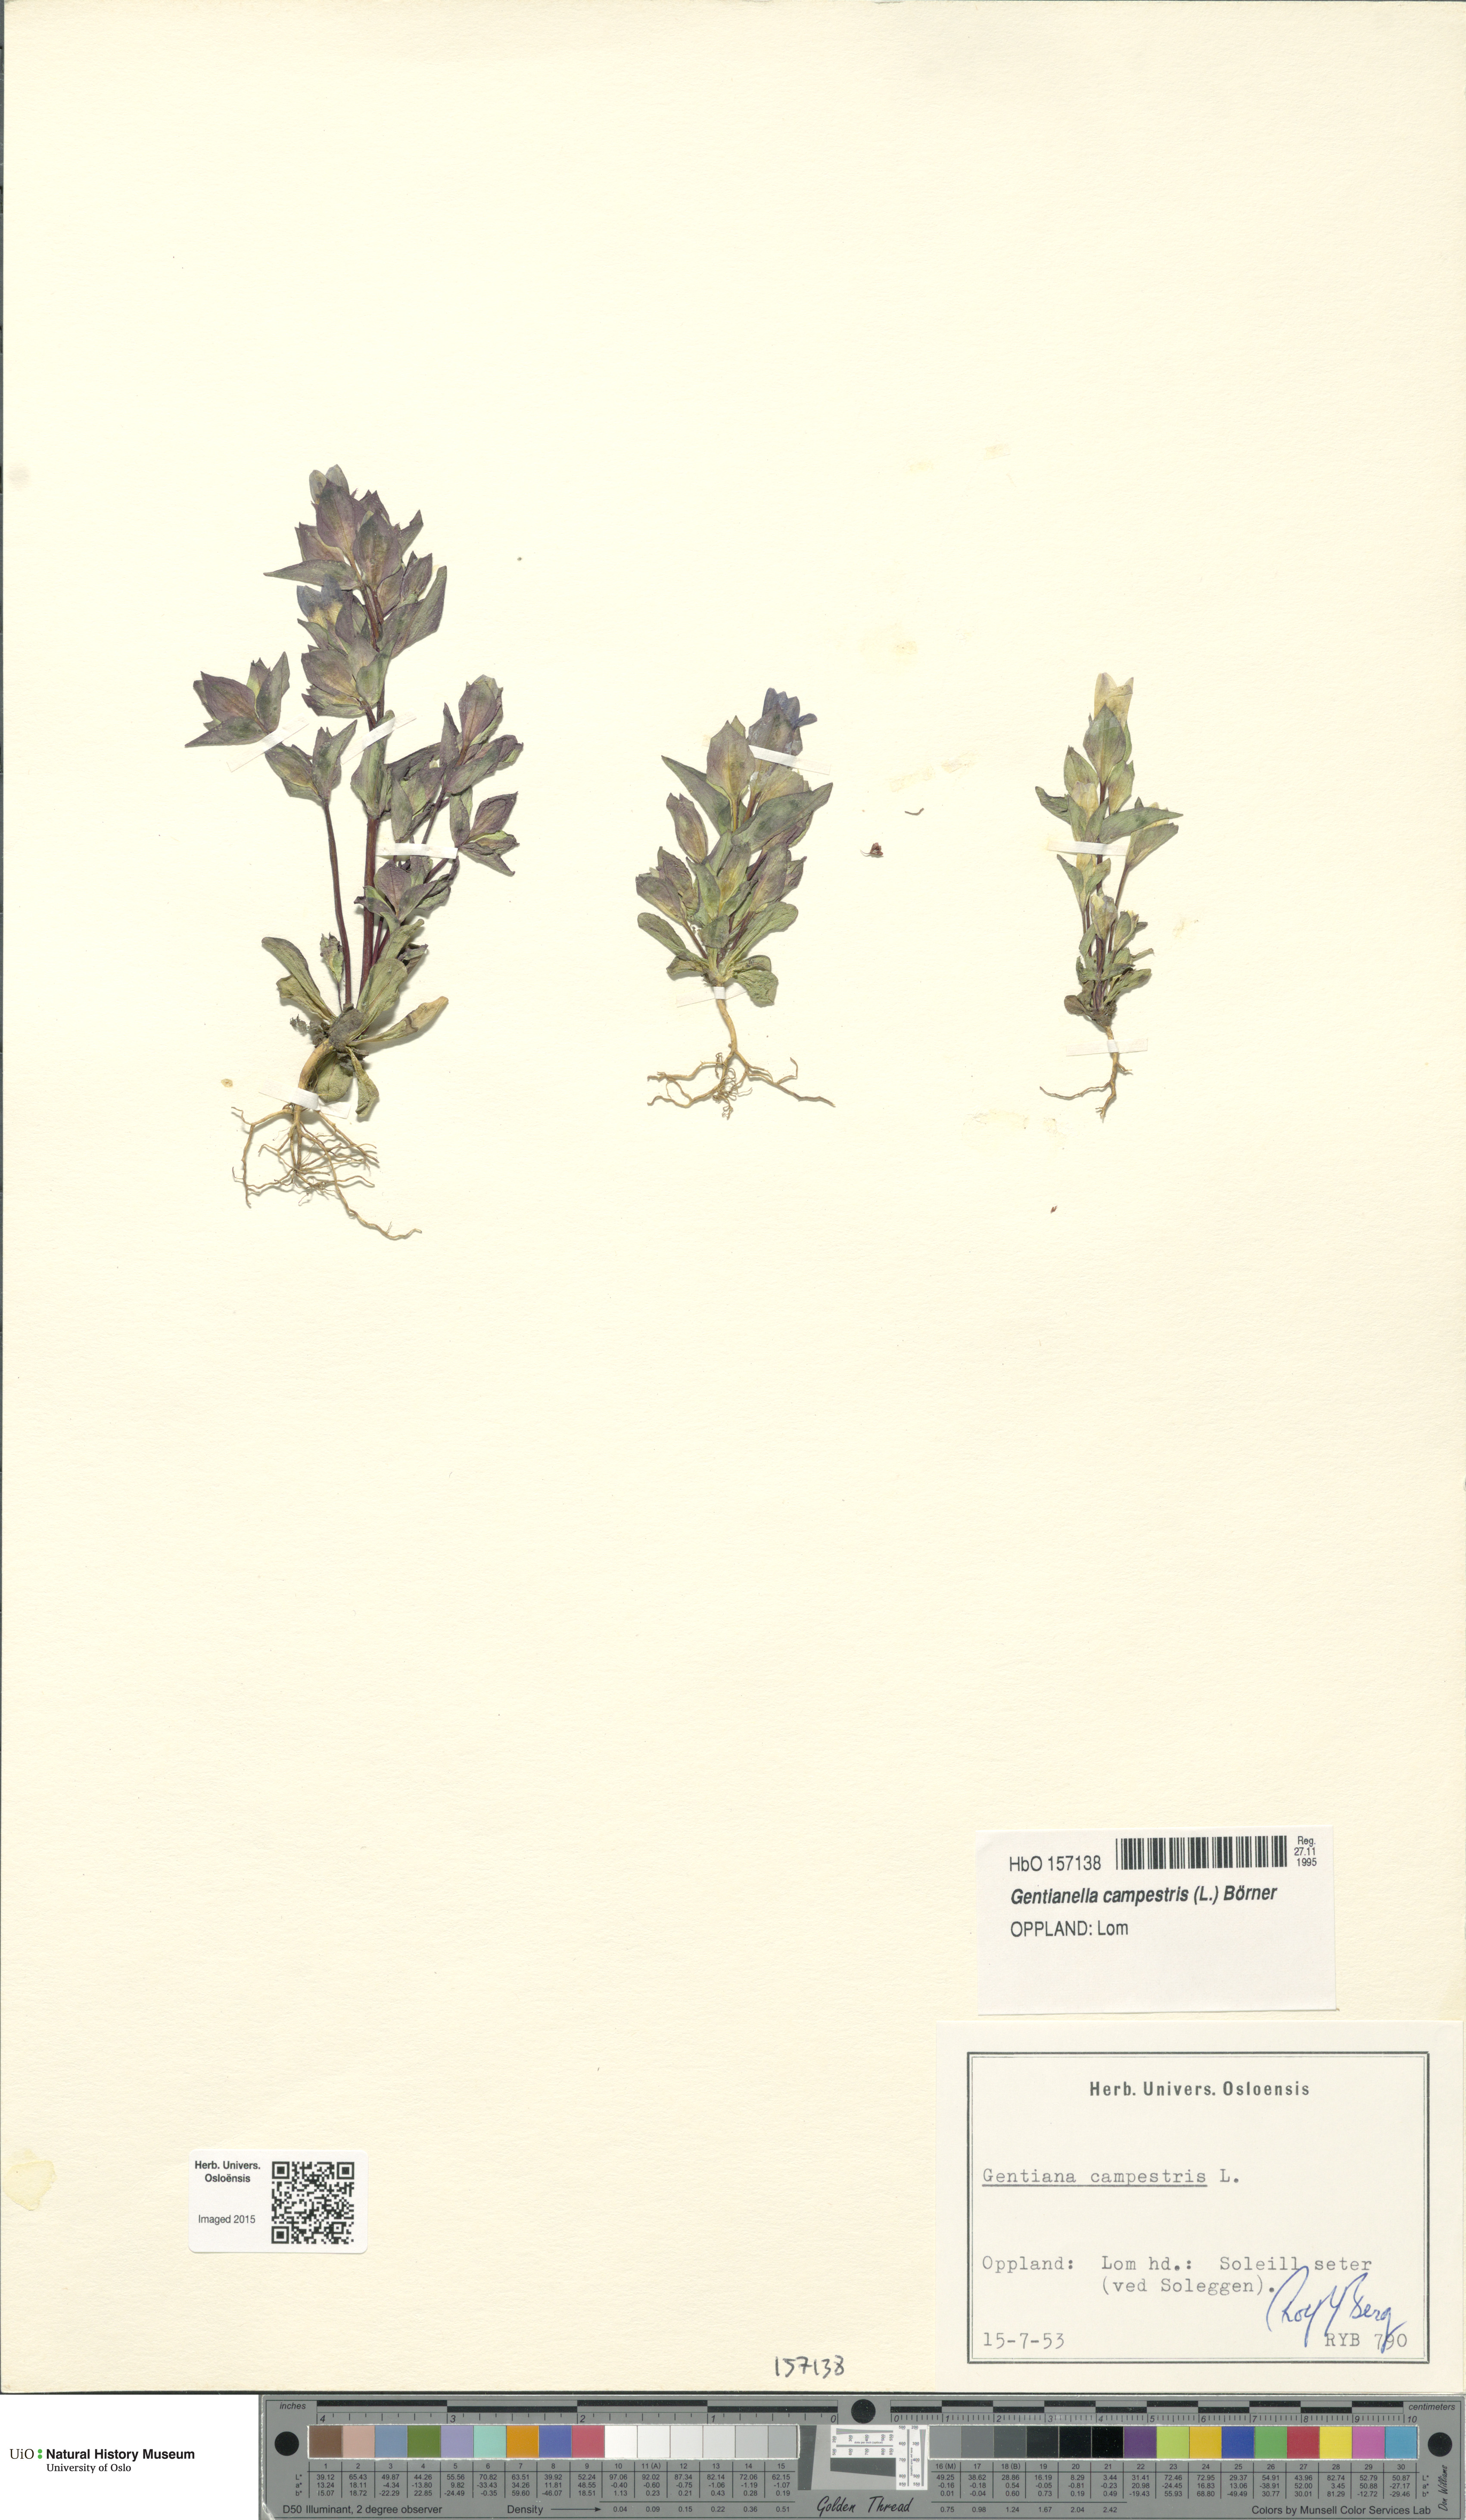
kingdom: Plantae
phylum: Tracheophyta
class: Magnoliopsida
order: Gentianales
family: Gentianaceae
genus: Gentianella
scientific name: Gentianella campestris
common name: Field gentian
